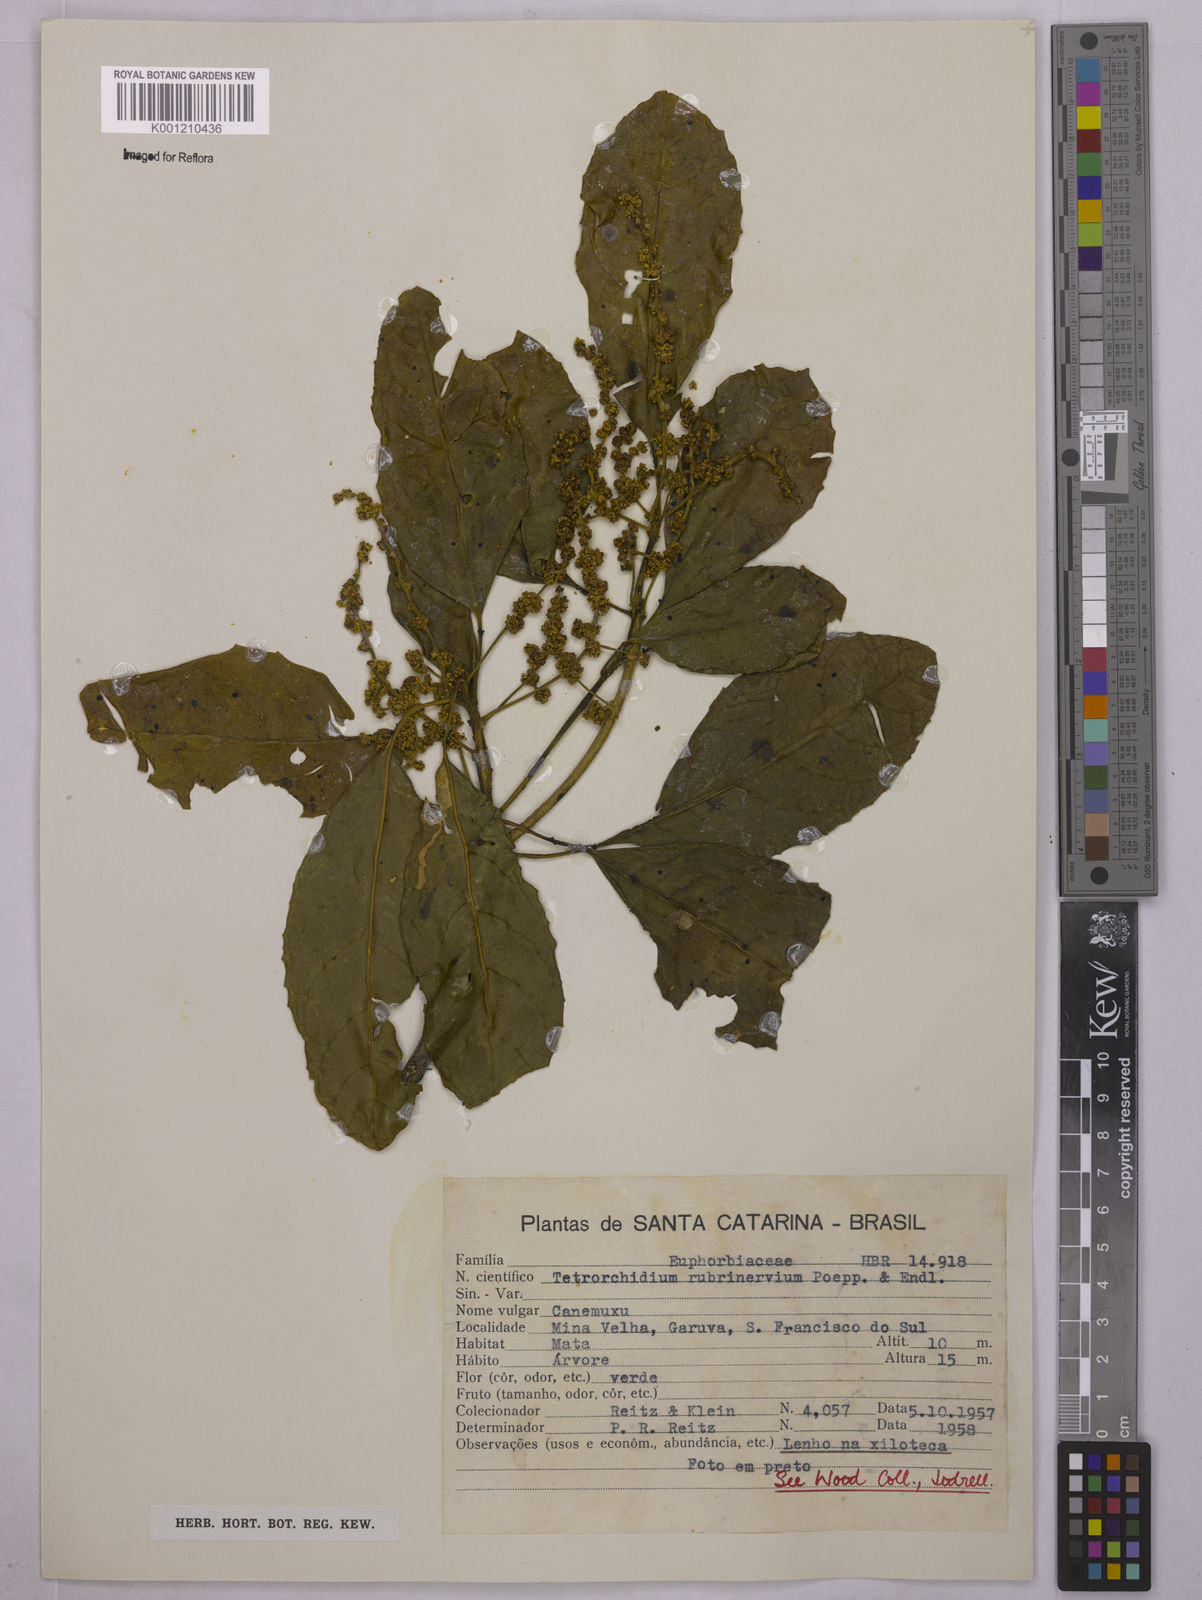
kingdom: Plantae
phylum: Tracheophyta
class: Magnoliopsida
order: Malpighiales
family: Euphorbiaceae
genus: Tetrorchidium
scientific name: Tetrorchidium rubrivenium
